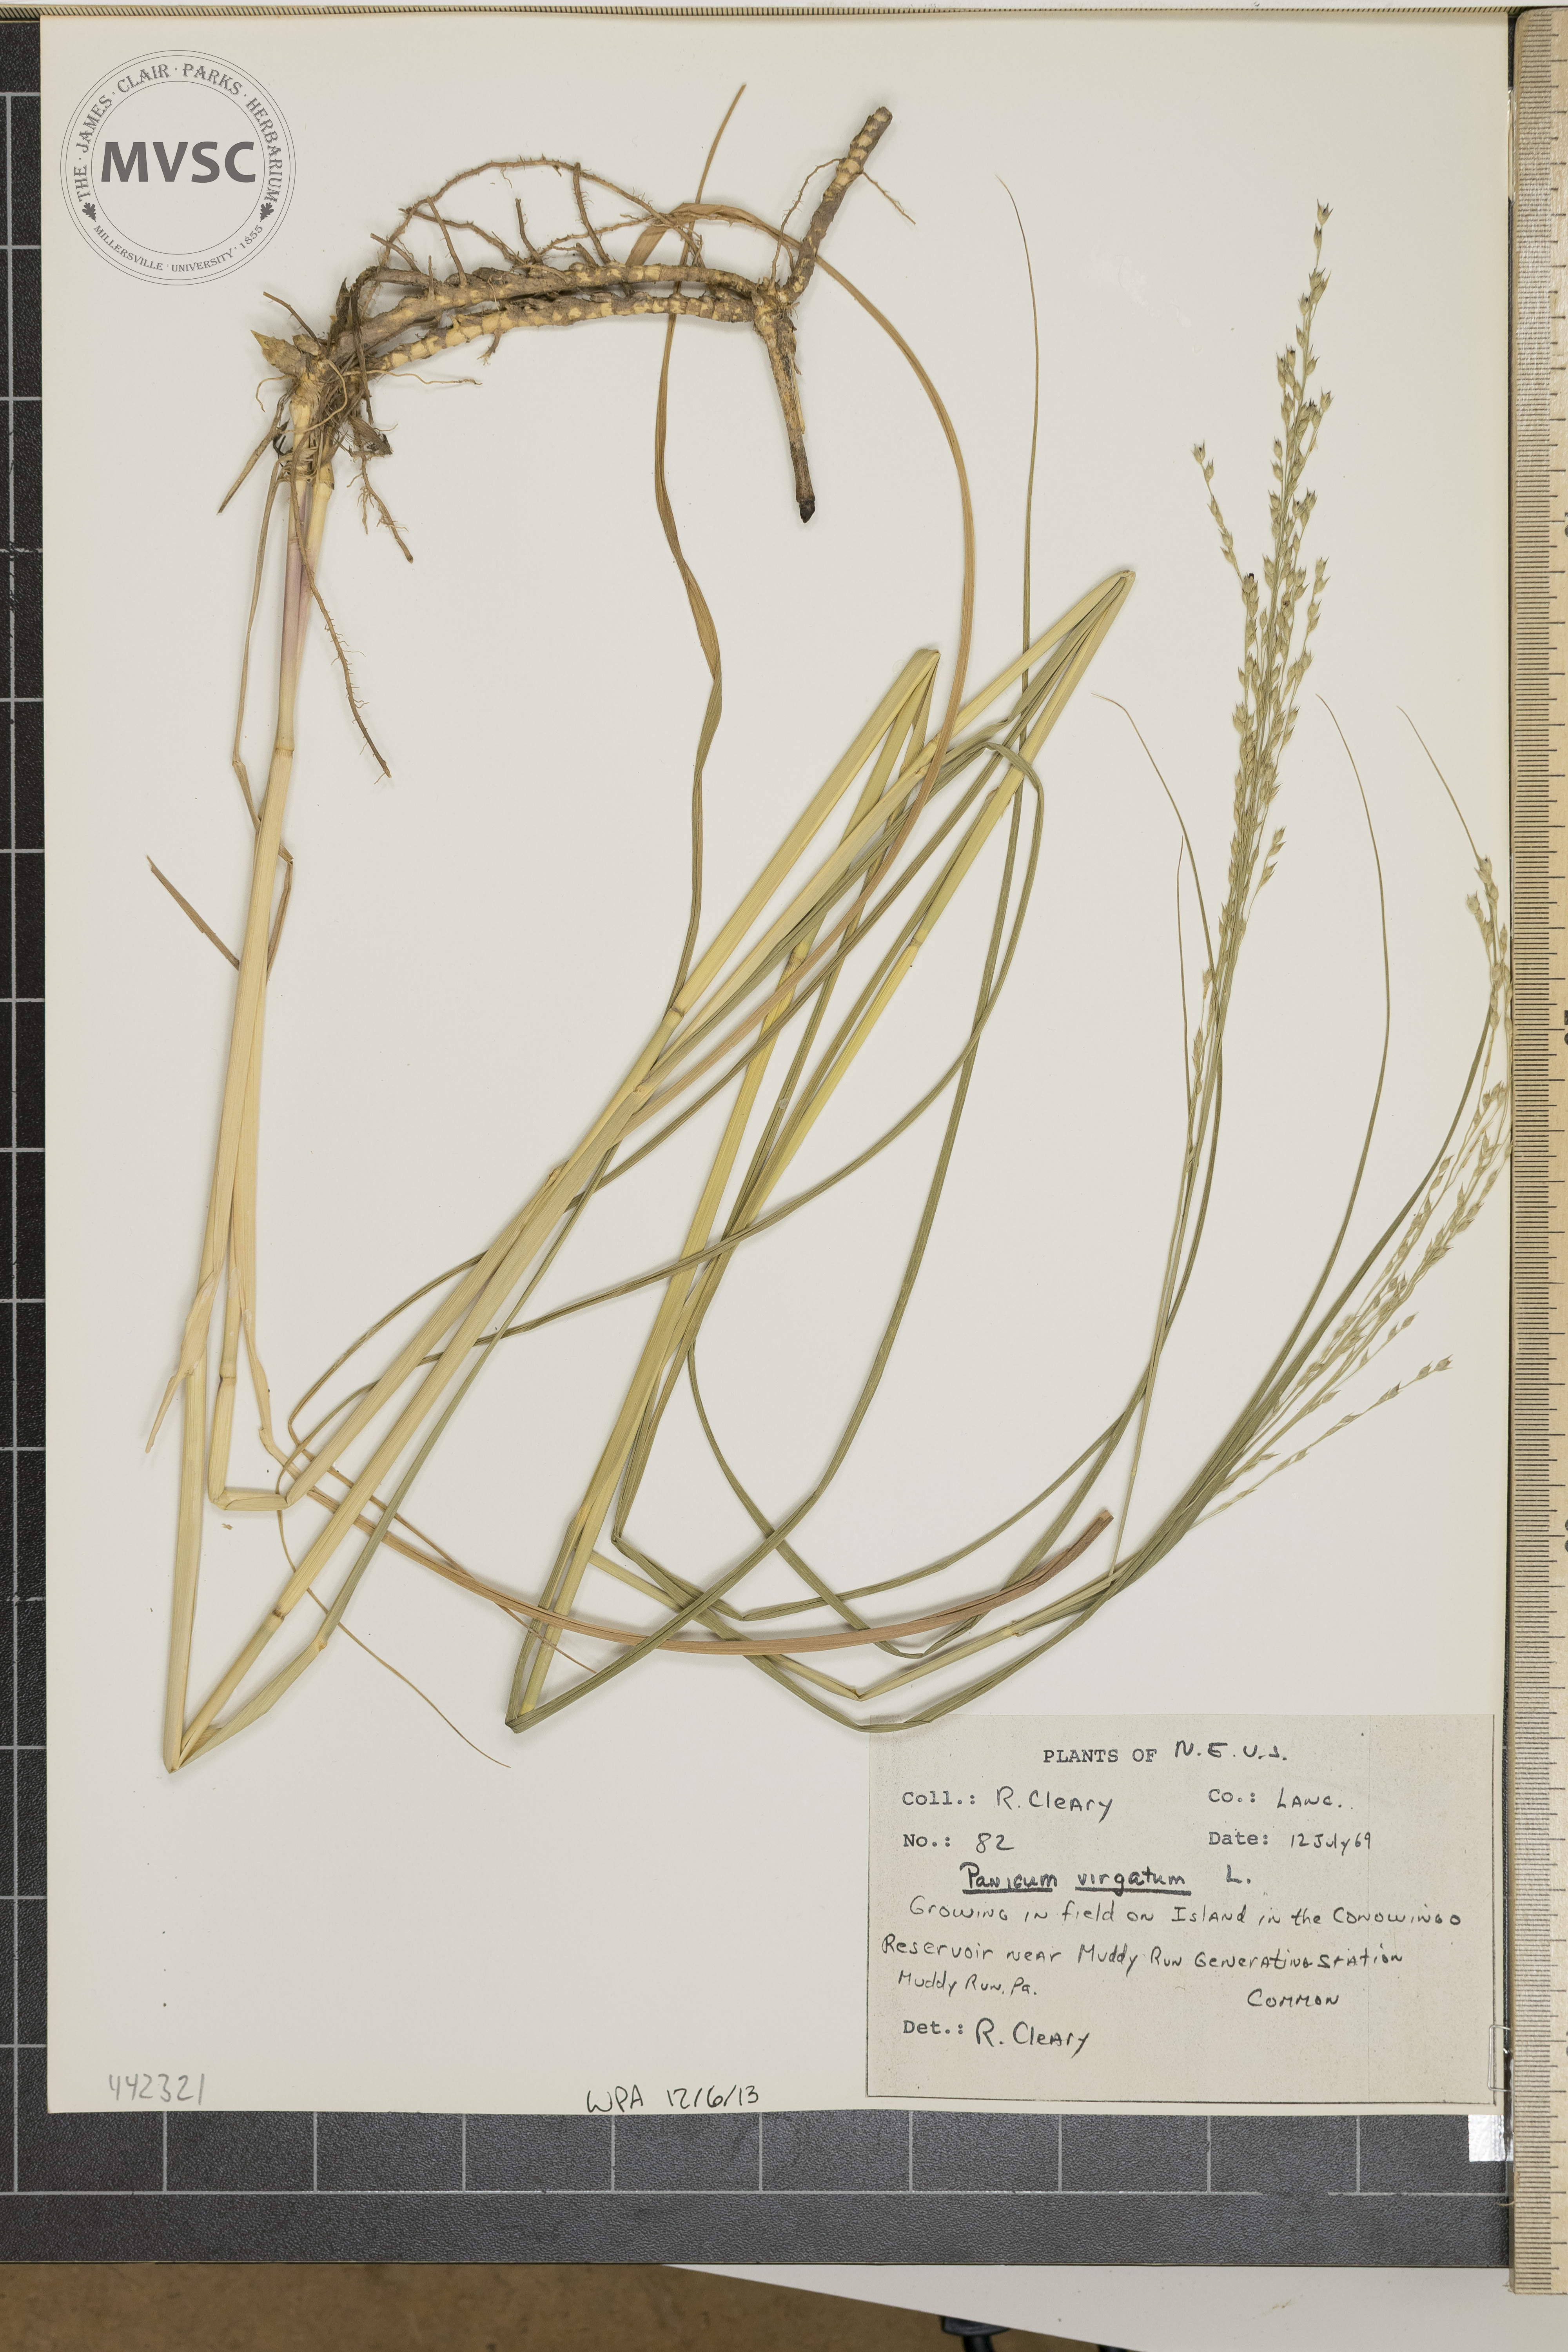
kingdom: Plantae
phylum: Tracheophyta
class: Liliopsida
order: Poales
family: Poaceae
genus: Panicum
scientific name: Panicum virgatum
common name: Switchgrass
